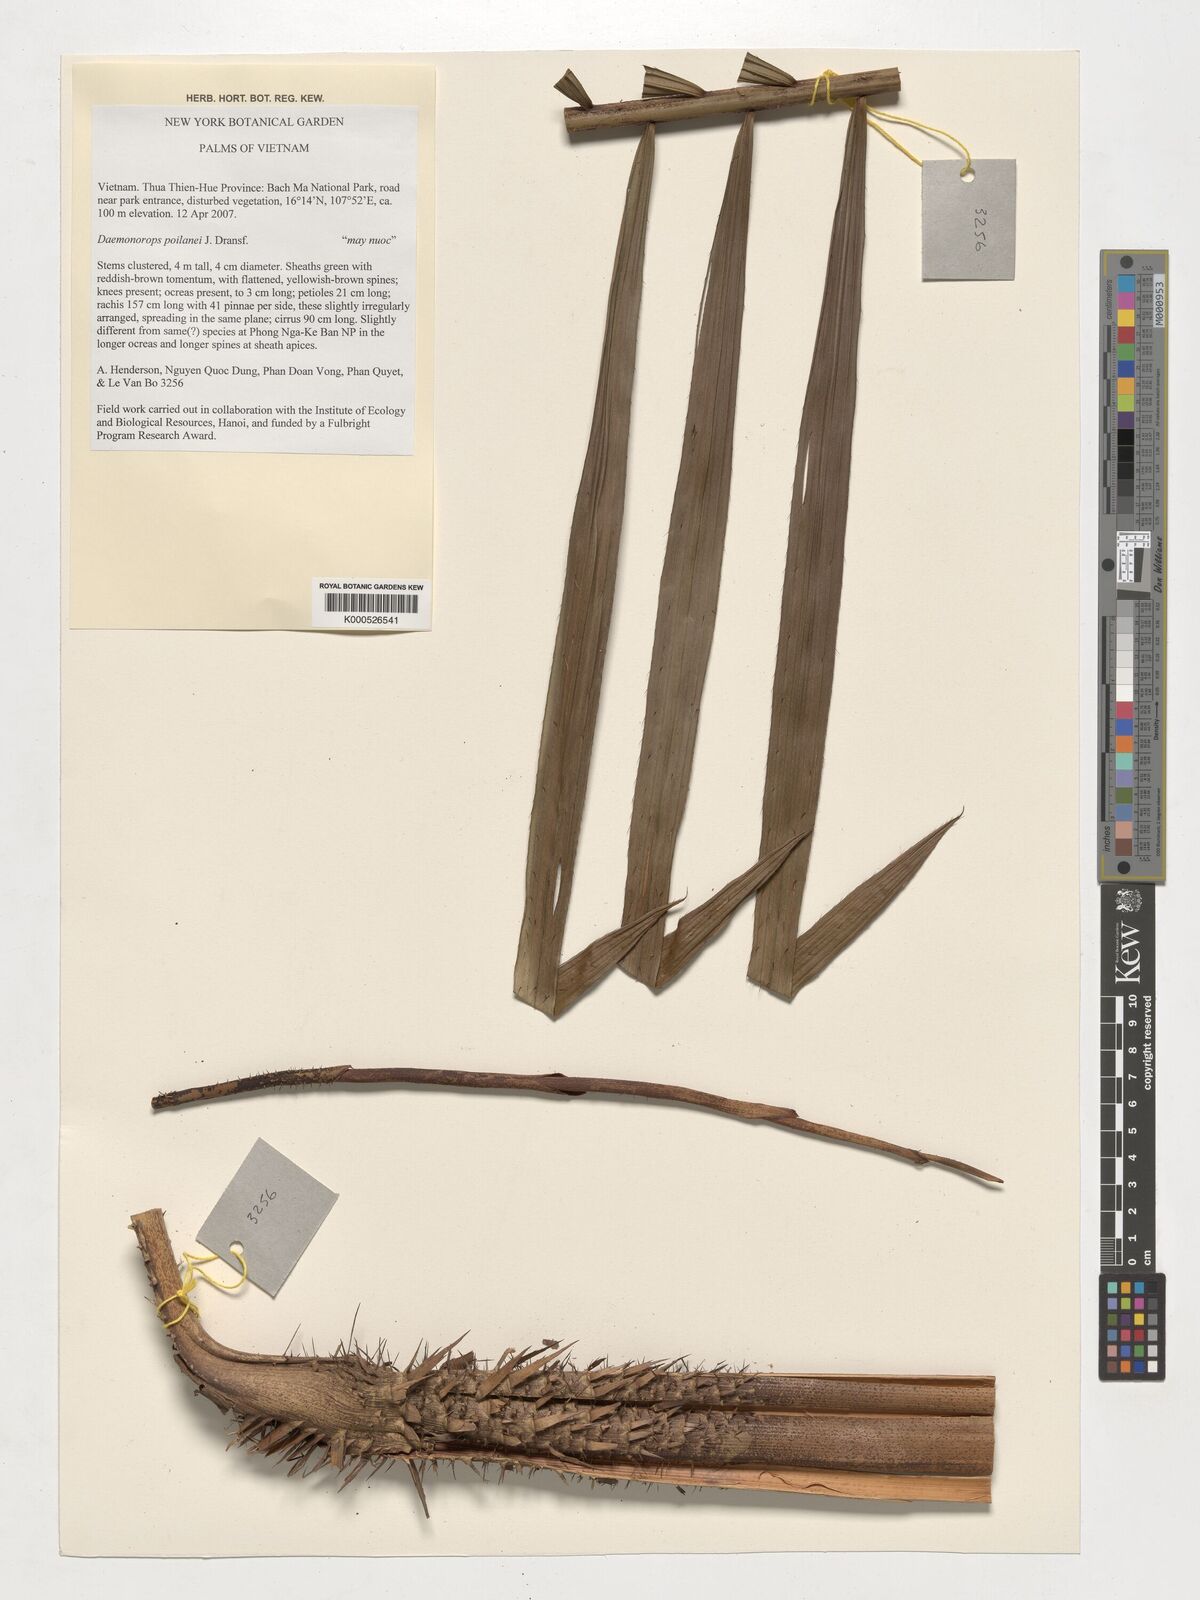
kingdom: Plantae
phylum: Tracheophyta
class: Liliopsida
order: Arecales
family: Arecaceae
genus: Calamus
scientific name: Calamus eugenei
